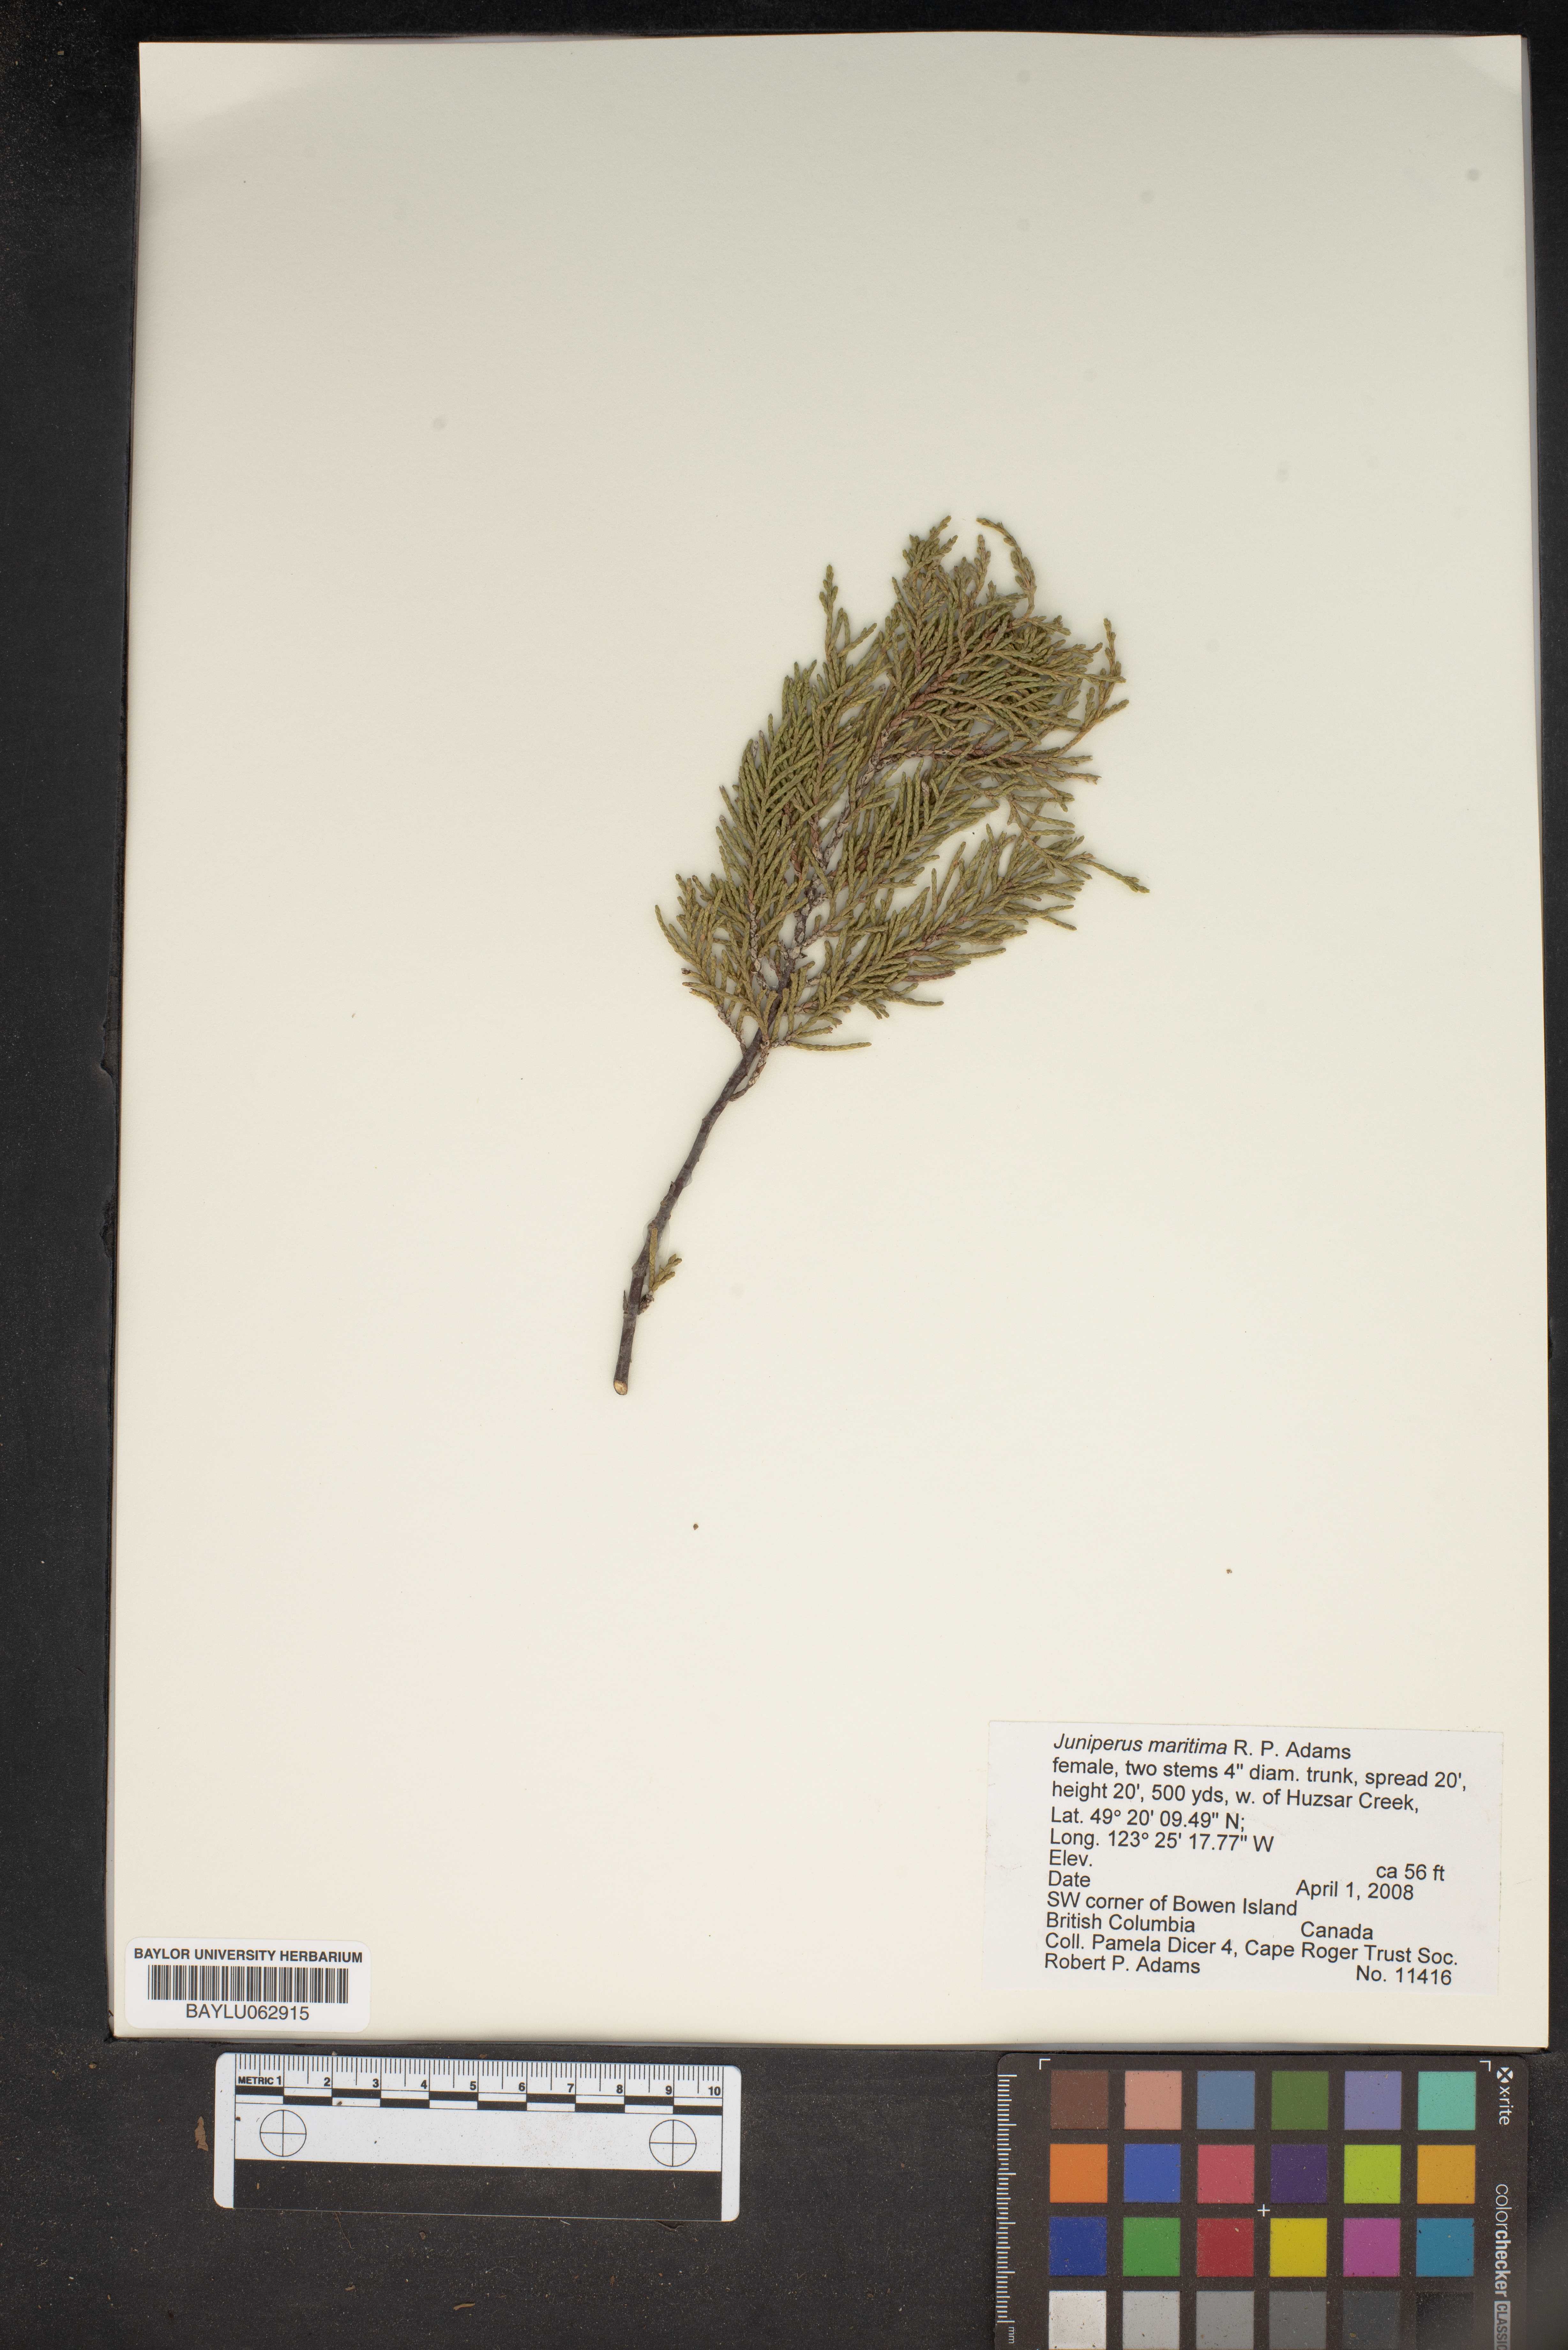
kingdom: Plantae
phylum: Tracheophyta
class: Pinopsida
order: Pinales
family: Cupressaceae
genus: Juniperus
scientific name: Juniperus scopulorum
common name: Rocky mountain juniper
